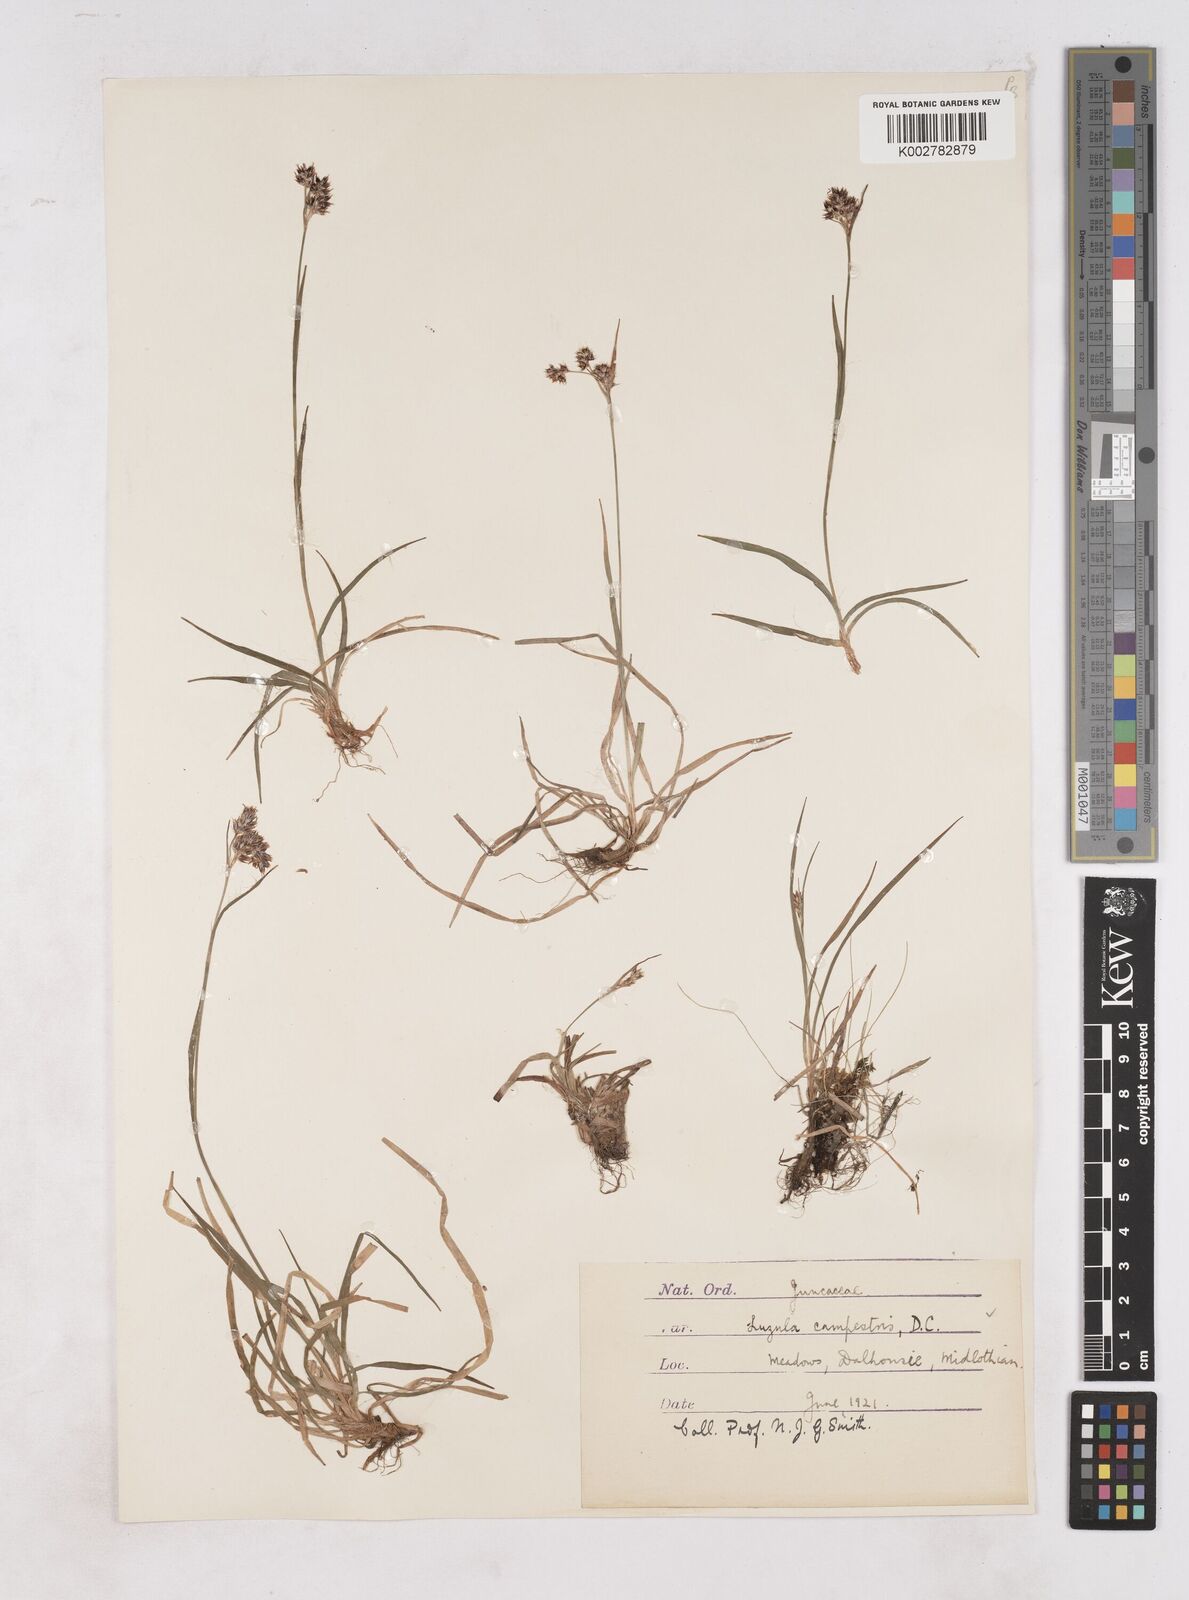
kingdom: Plantae
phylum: Tracheophyta
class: Liliopsida
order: Poales
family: Juncaceae
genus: Luzula
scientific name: Luzula campestris
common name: Field wood-rush
